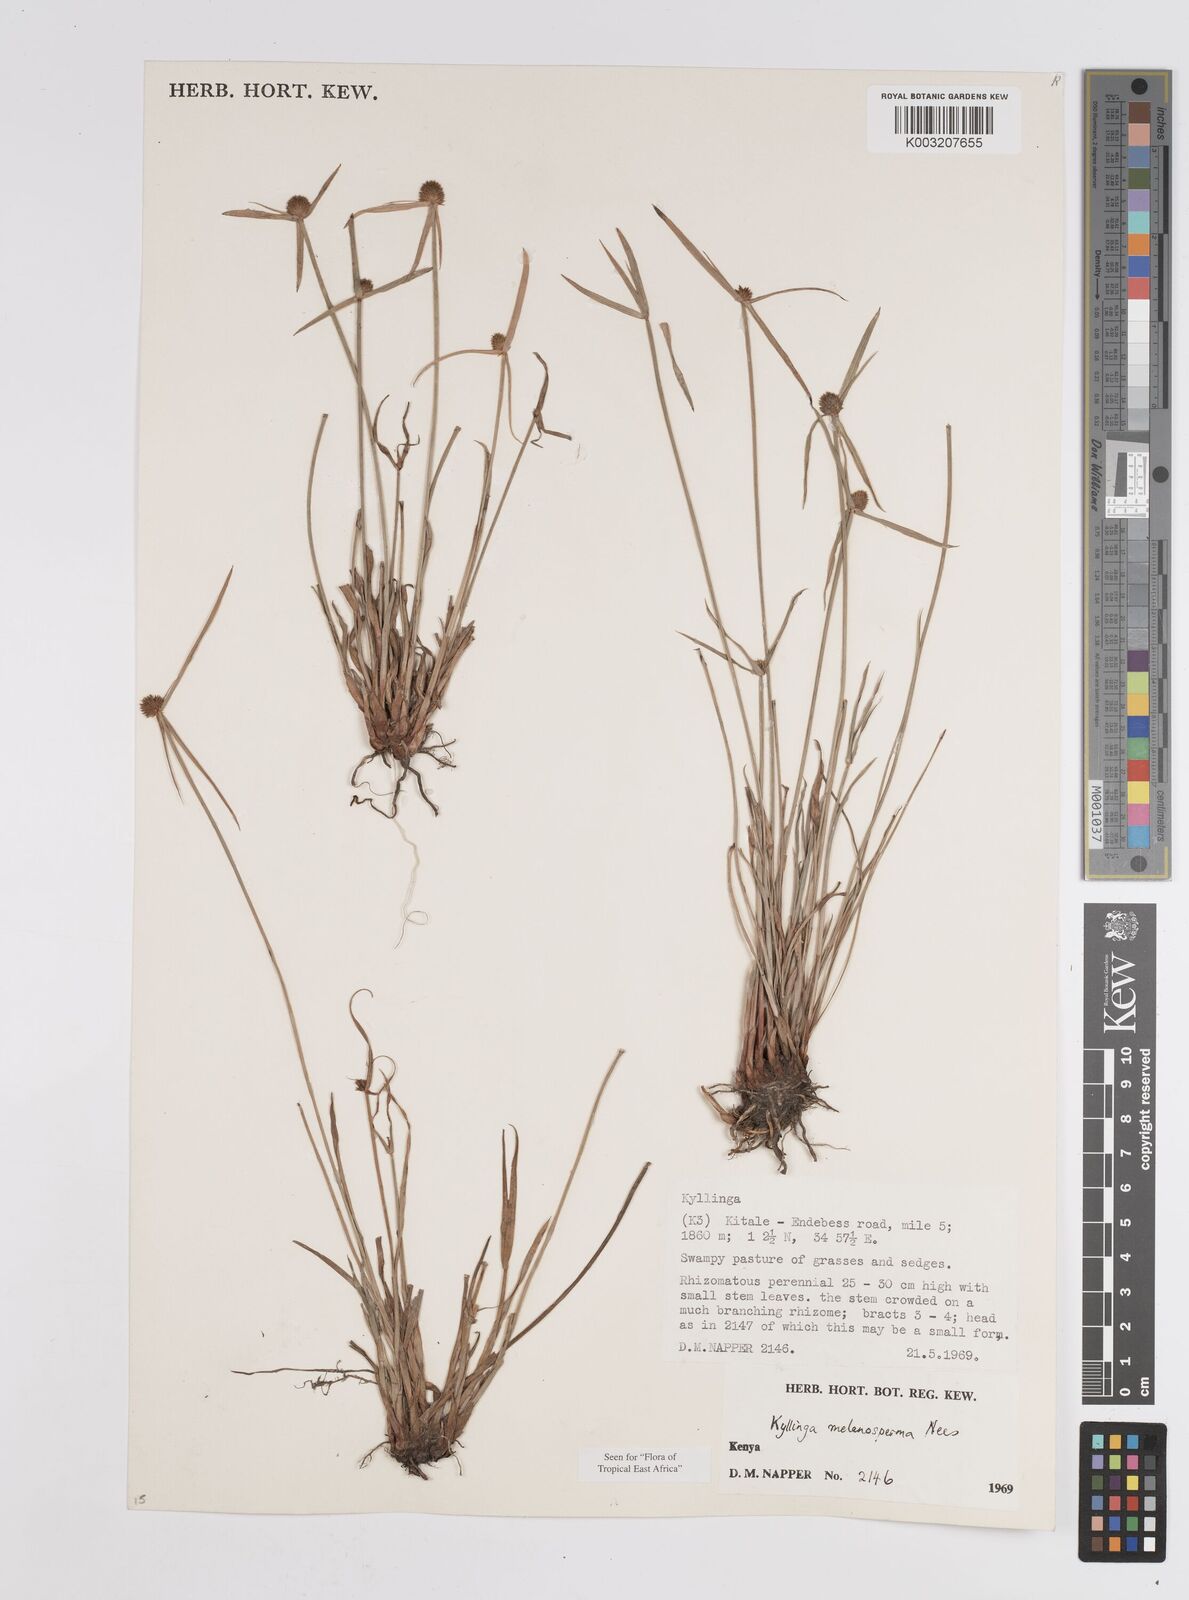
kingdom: Plantae
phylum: Tracheophyta
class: Liliopsida
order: Poales
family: Cyperaceae
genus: Cyperus
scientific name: Cyperus melanospermus
